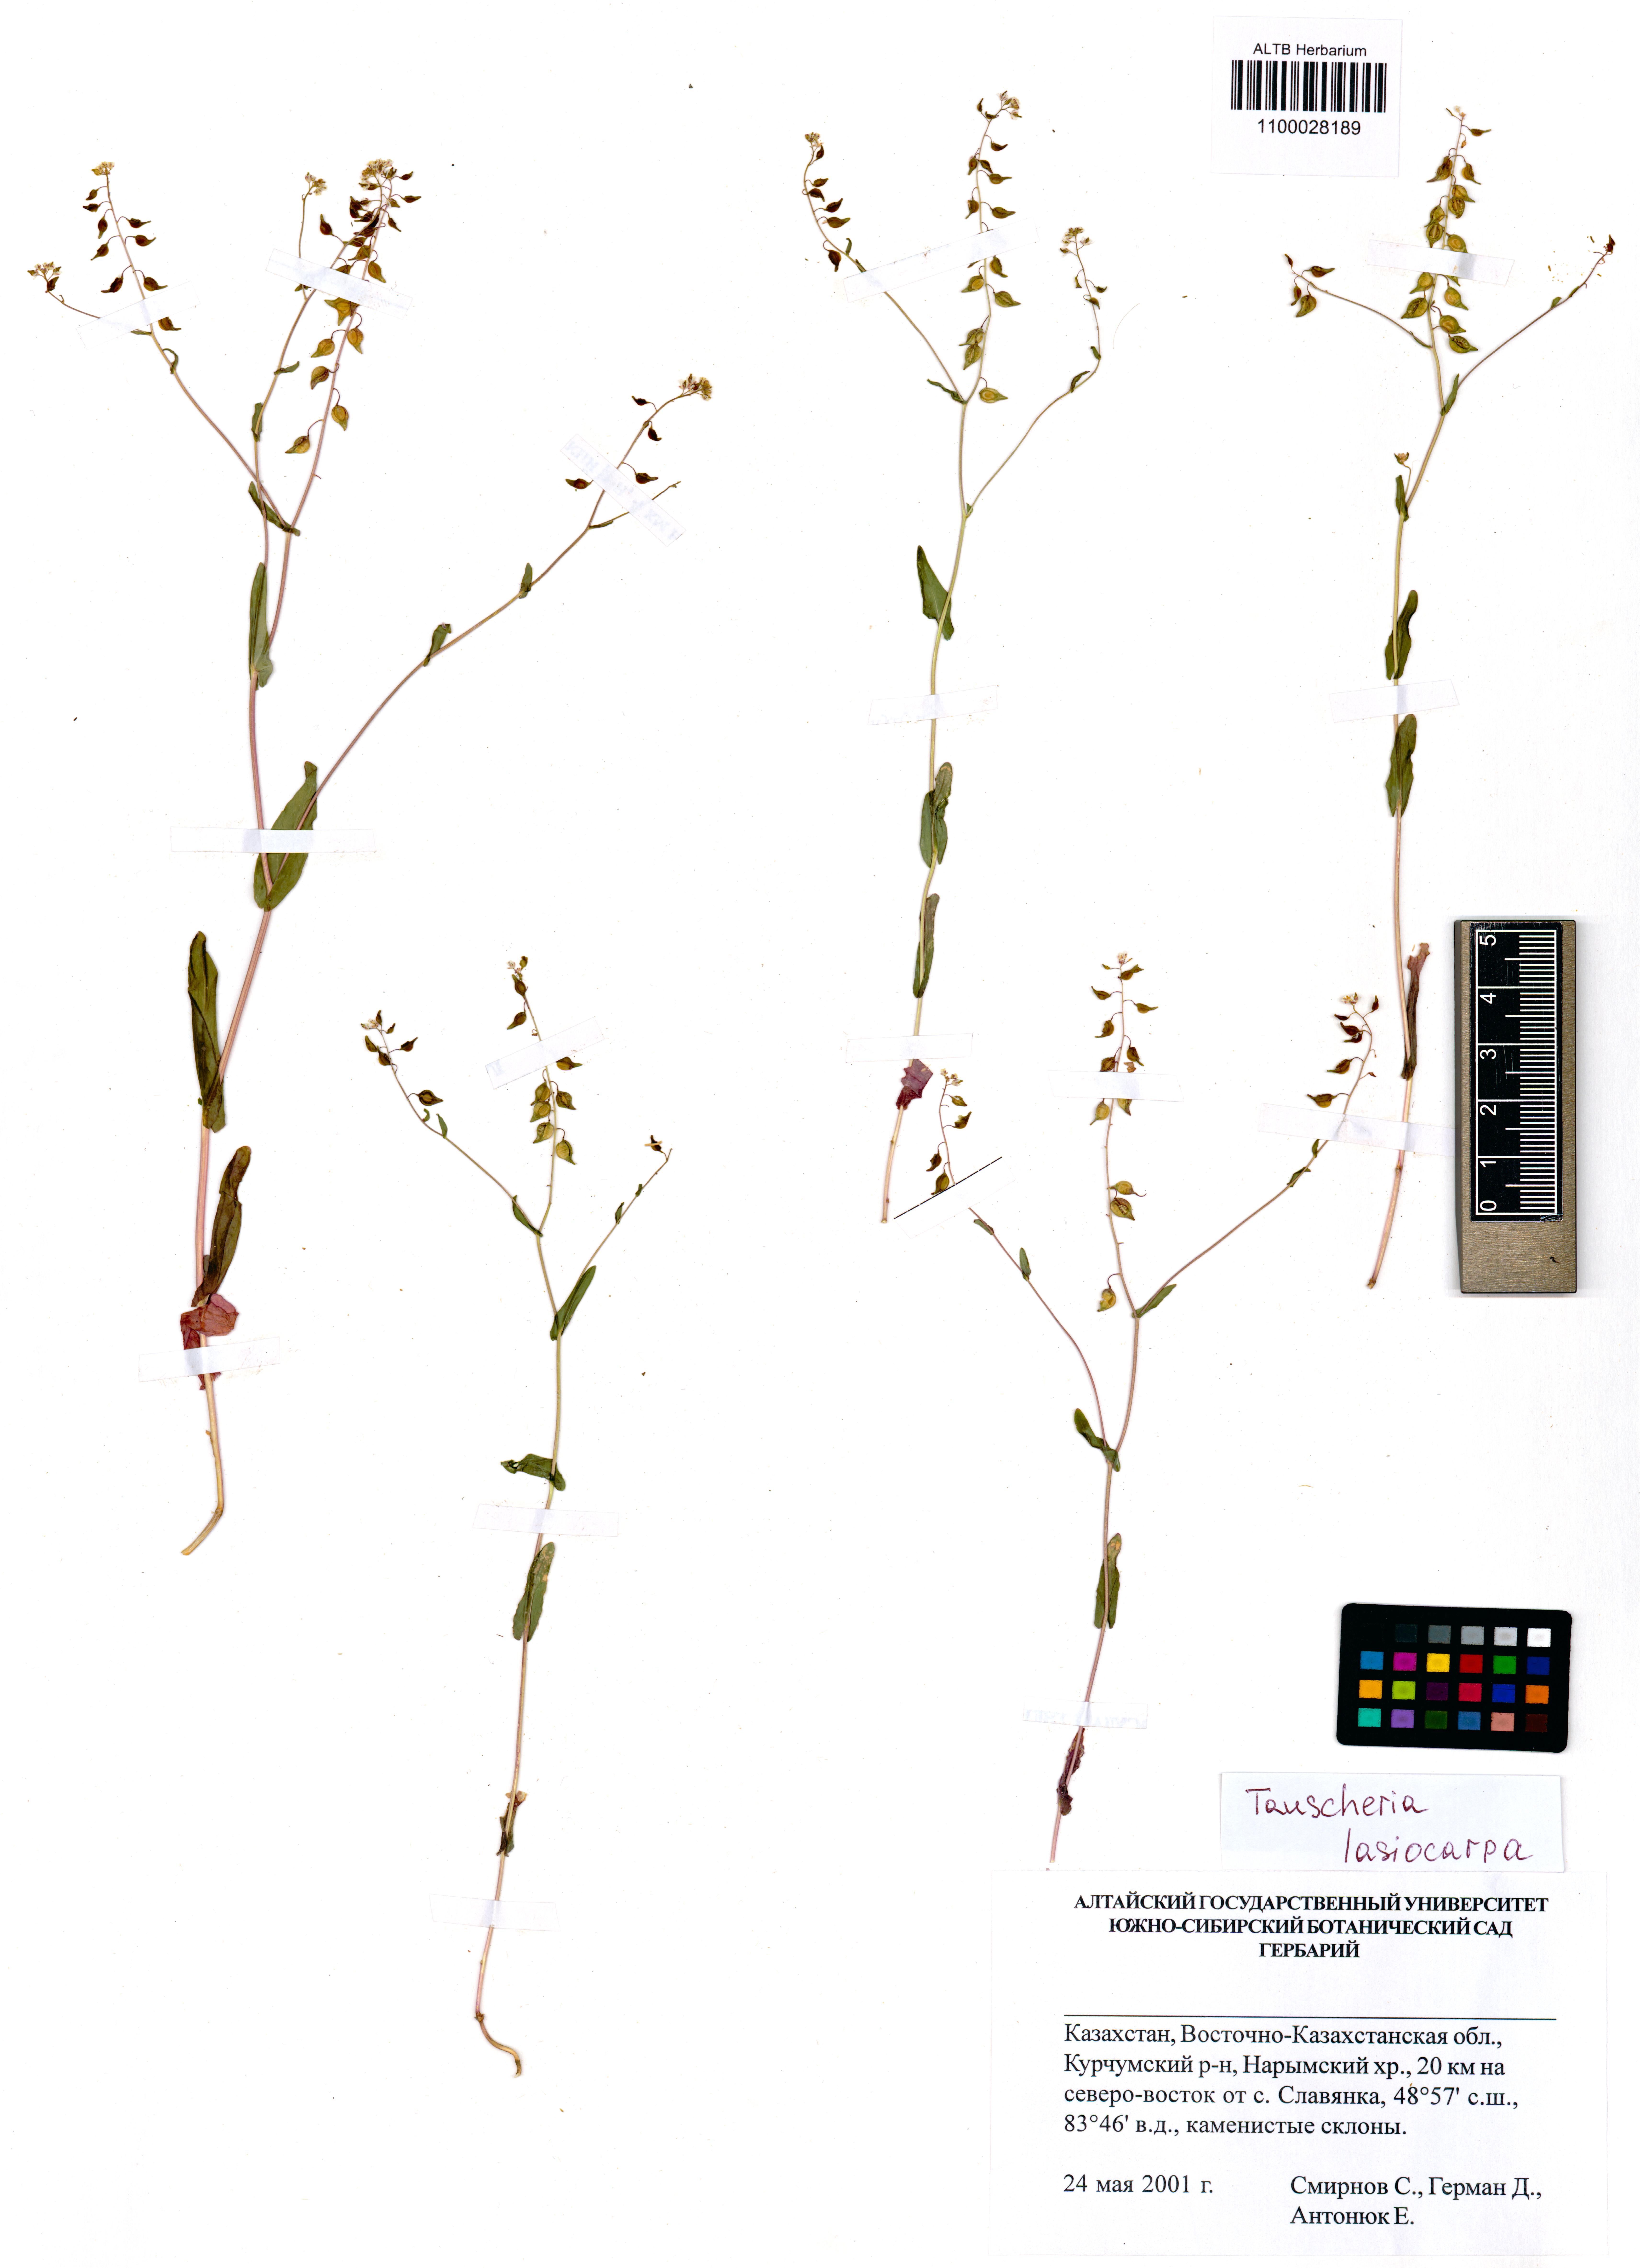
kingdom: Plantae
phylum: Tracheophyta
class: Magnoliopsida
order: Brassicales
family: Brassicaceae
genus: Tauscheria
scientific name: Tauscheria lasiocarpa
